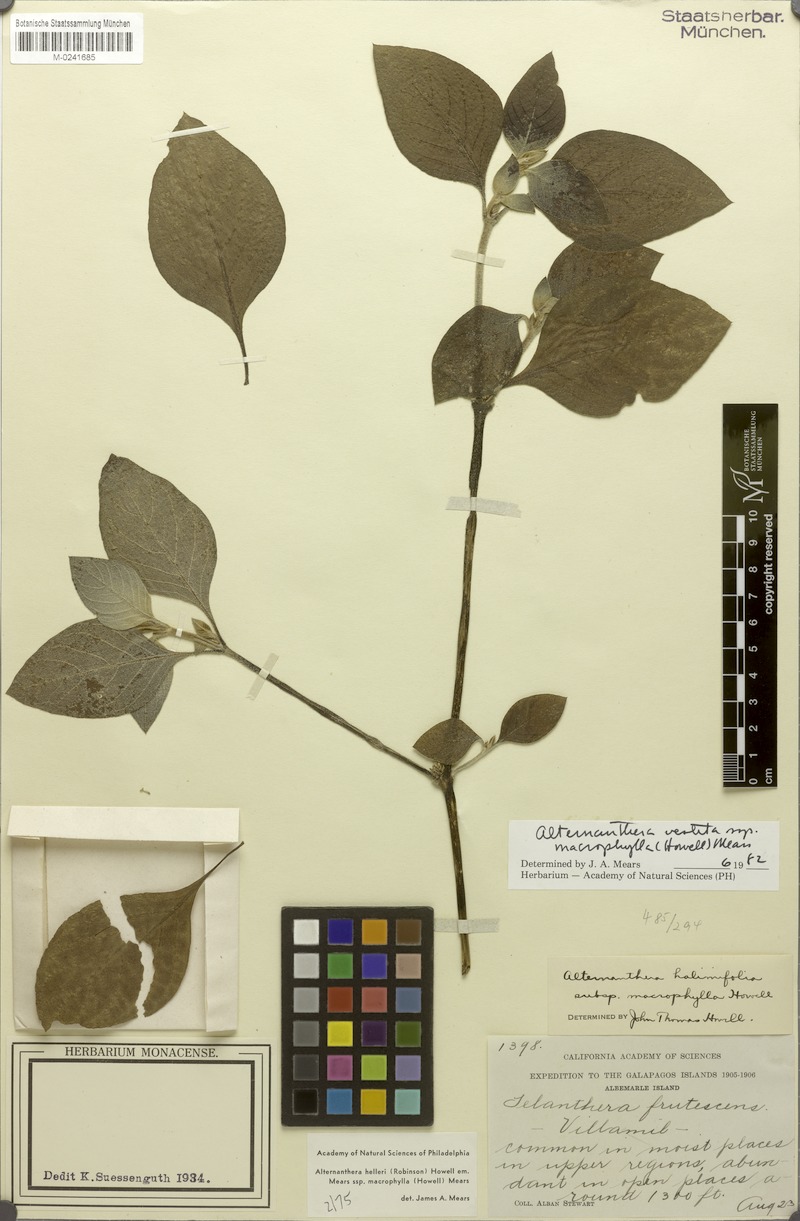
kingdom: Plantae
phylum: Tracheophyta
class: Magnoliopsida
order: Caryophyllales
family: Amaranthaceae
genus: Alternanthera
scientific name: Alternanthera halimifolia
